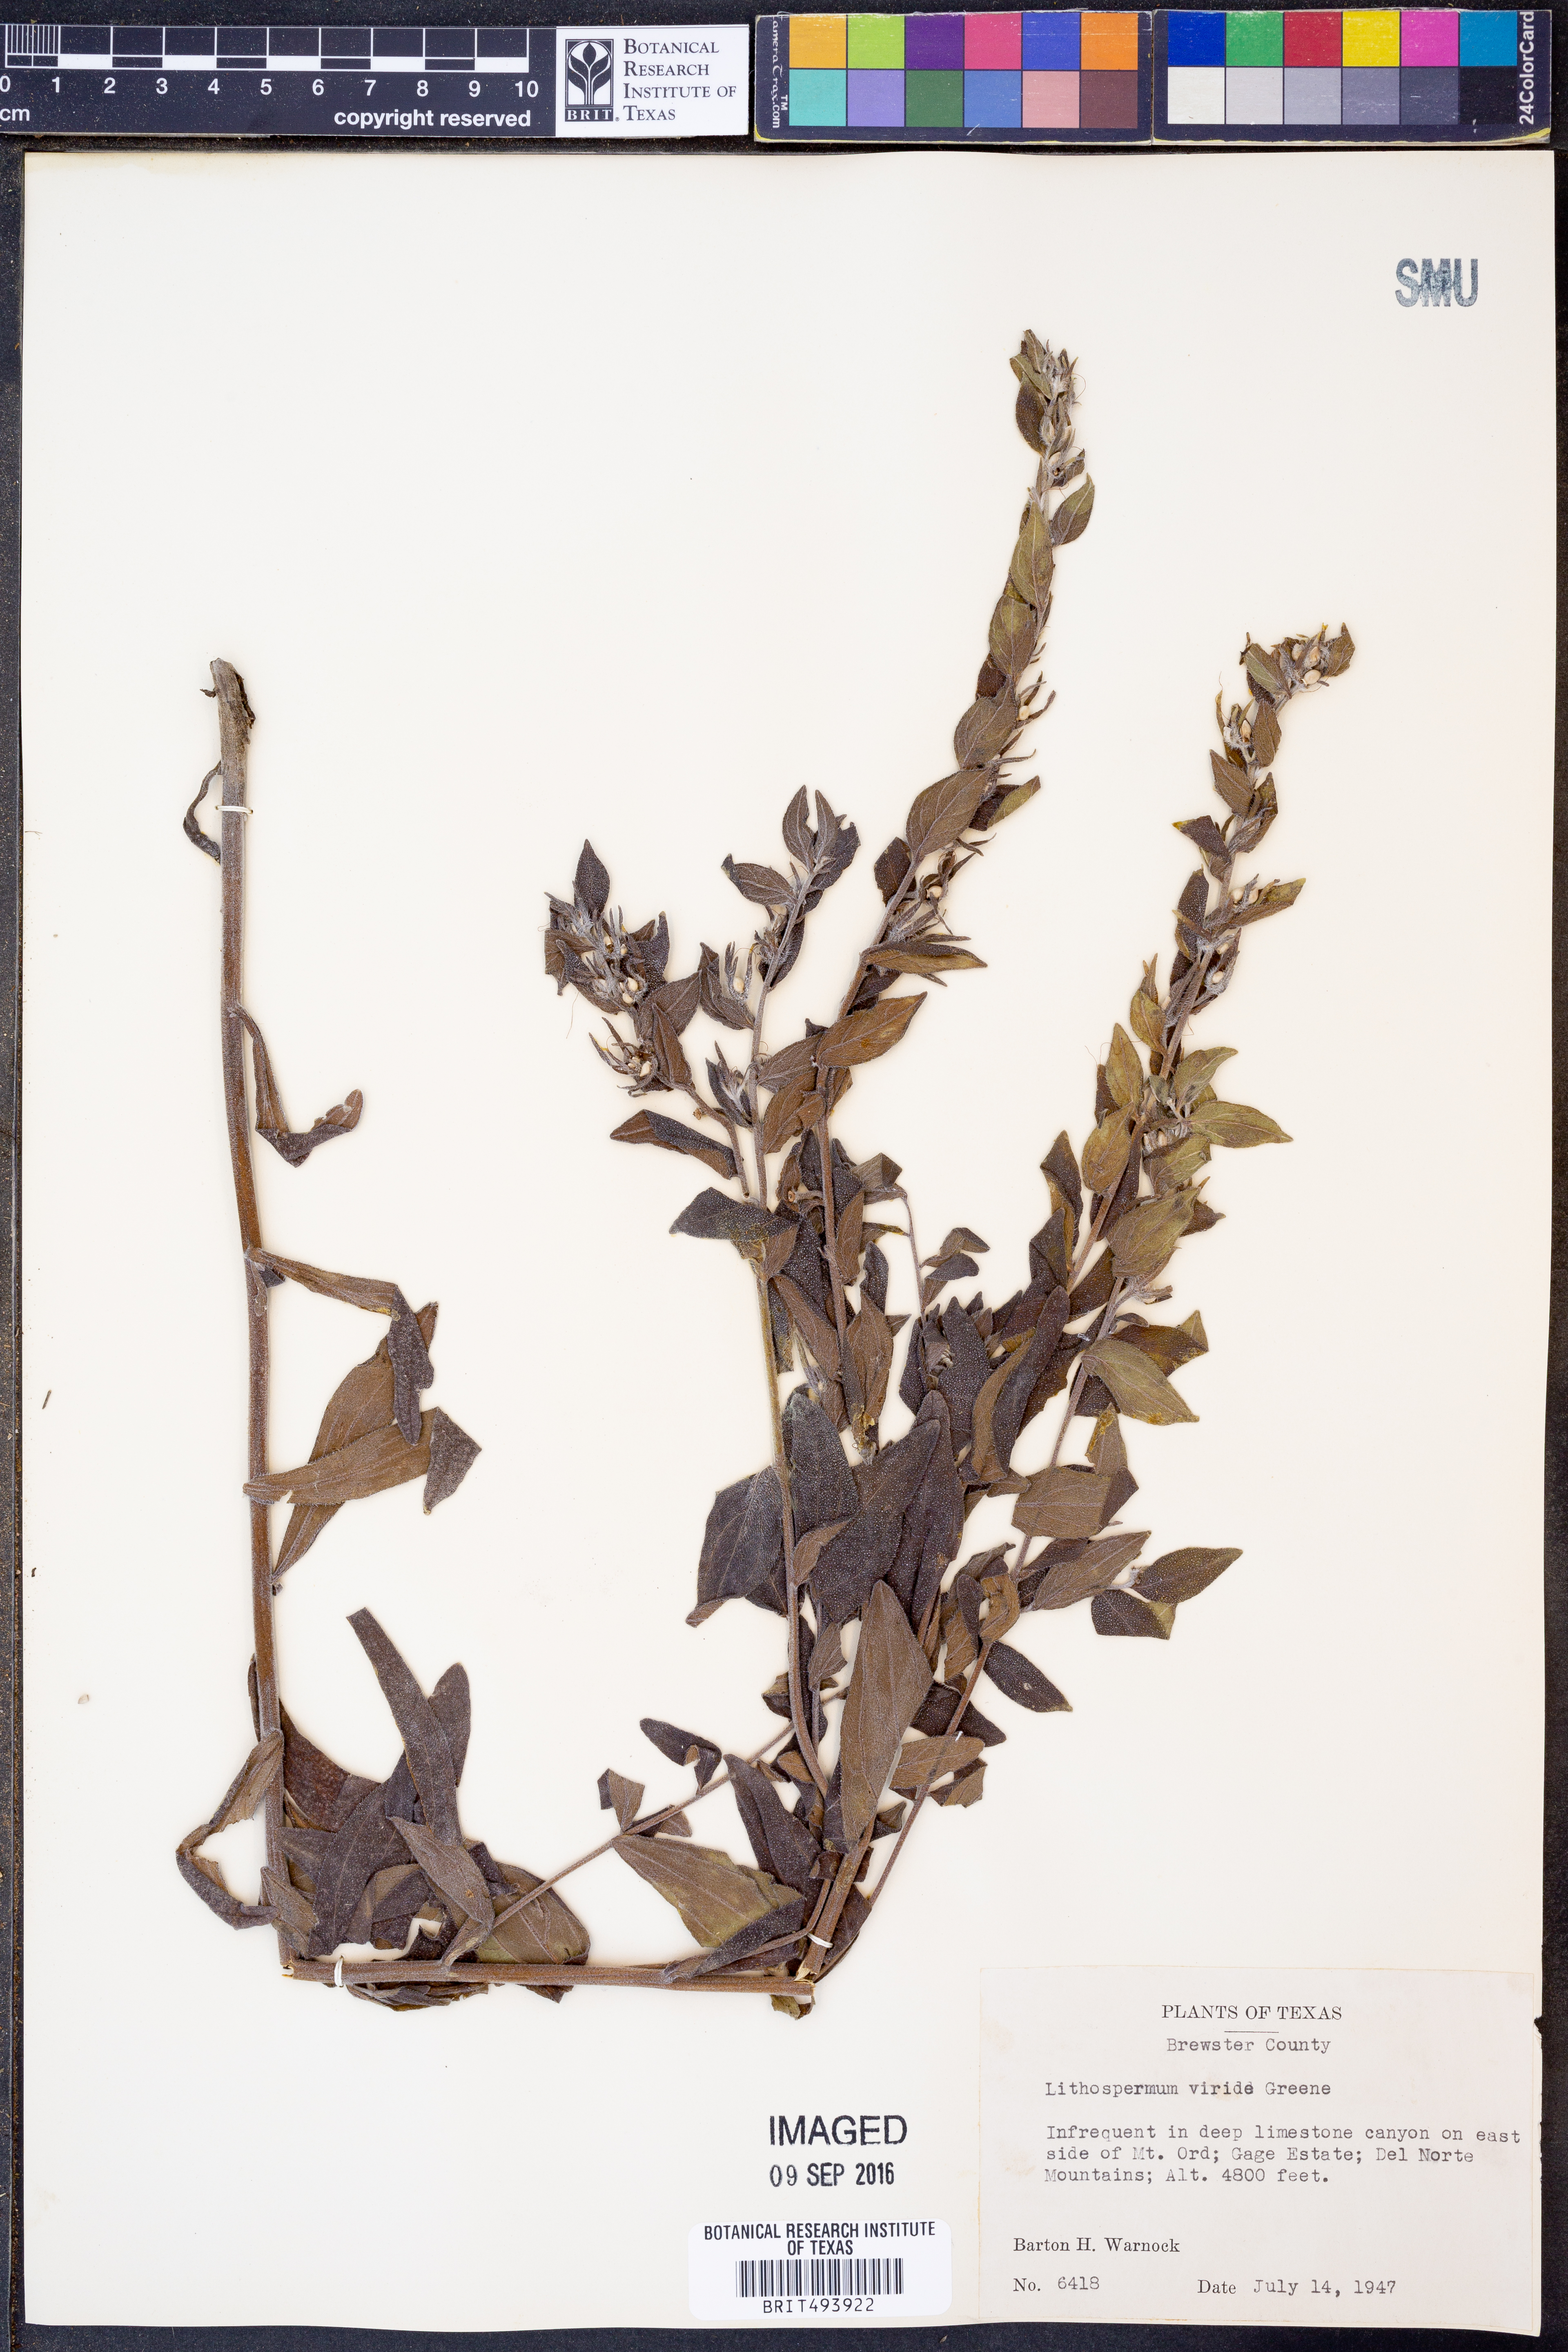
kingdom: Plantae
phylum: Tracheophyta
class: Magnoliopsida
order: Boraginales
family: Boraginaceae
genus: Lithospermum
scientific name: Lithospermum viride
